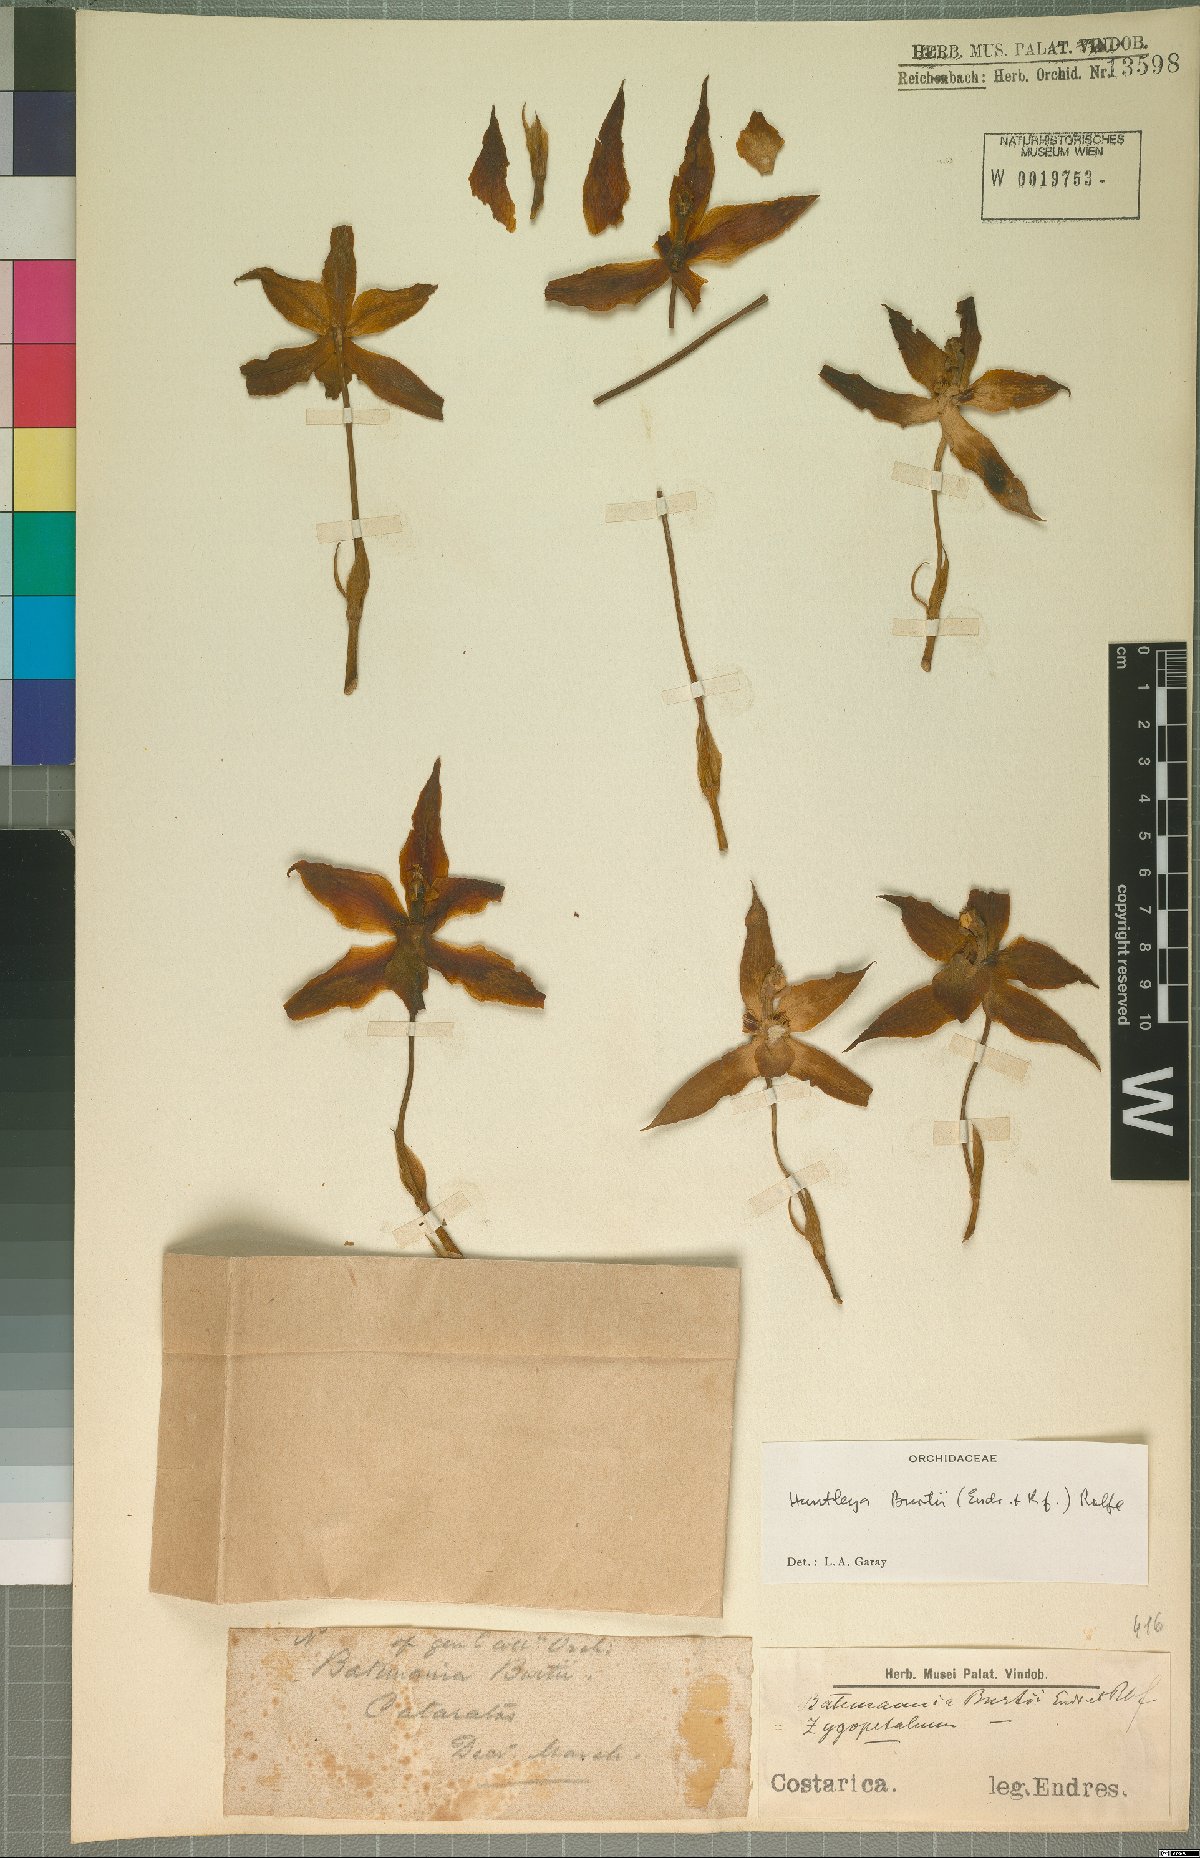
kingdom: Plantae
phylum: Tracheophyta
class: Liliopsida
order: Asparagales
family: Orchidaceae
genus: Huntleya
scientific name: Huntleya burtii
